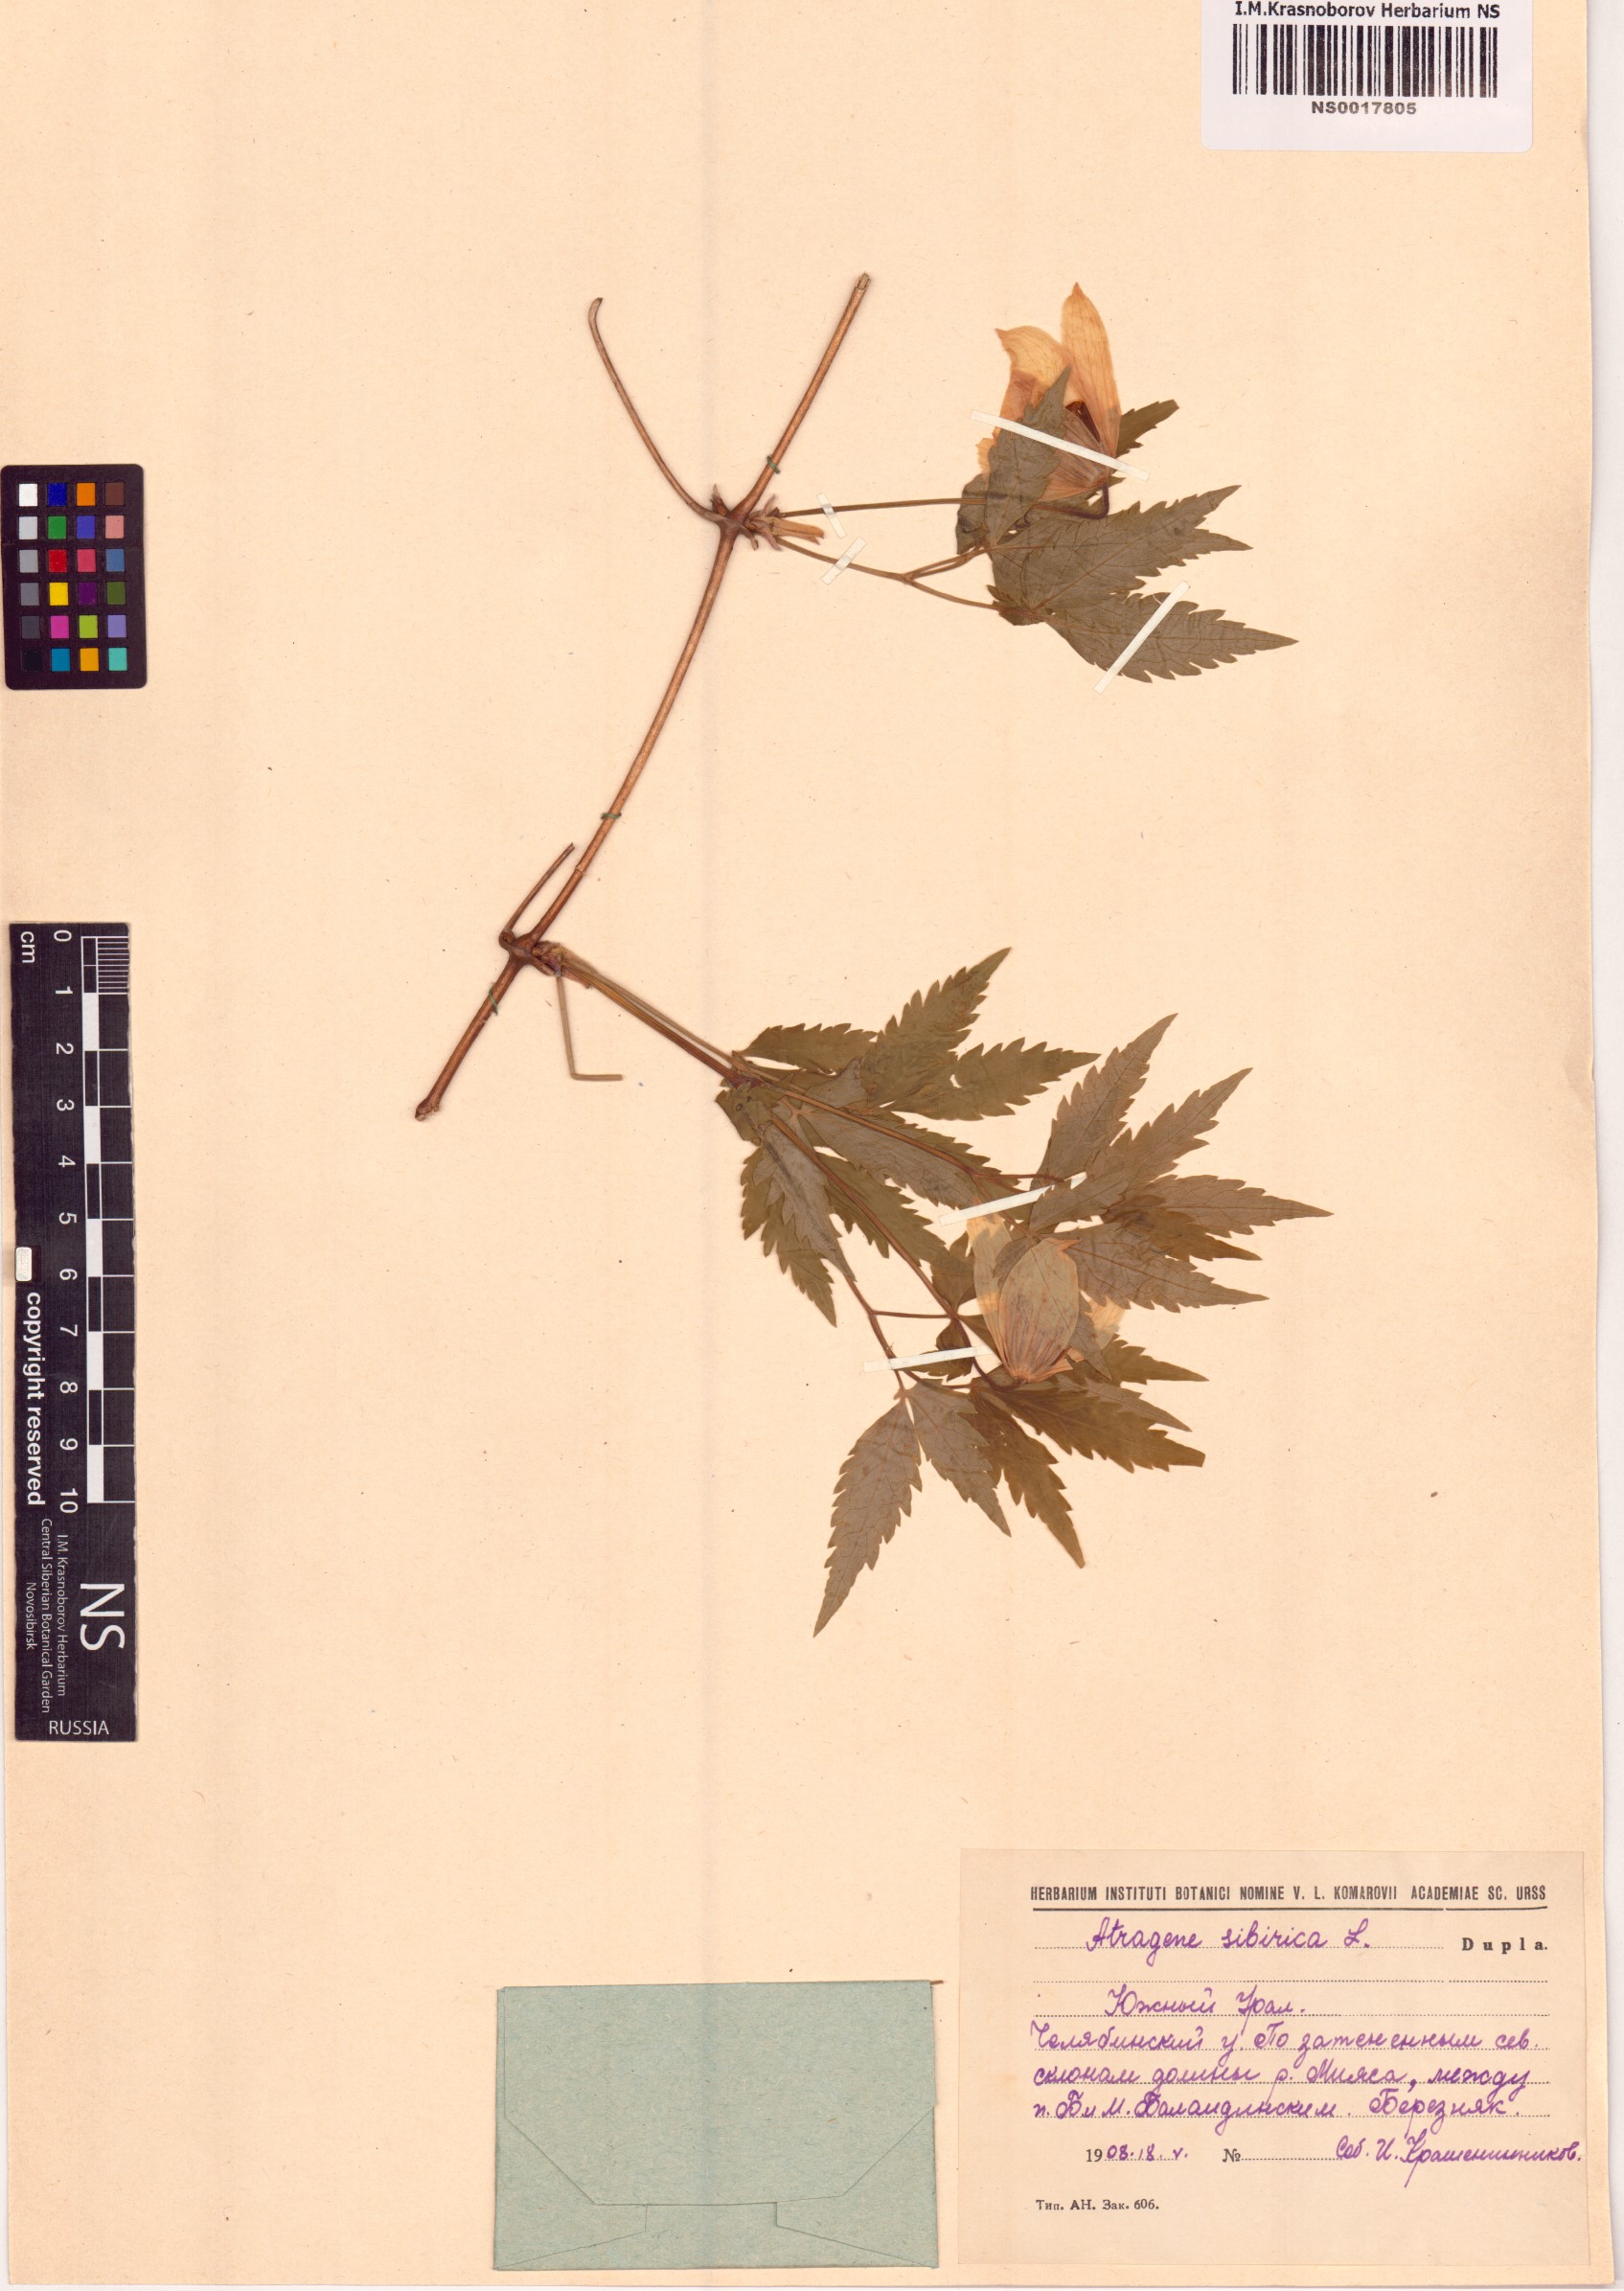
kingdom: Plantae
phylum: Tracheophyta
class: Magnoliopsida
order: Ranunculales
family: Ranunculaceae
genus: Clematis
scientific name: Clematis sibirica
